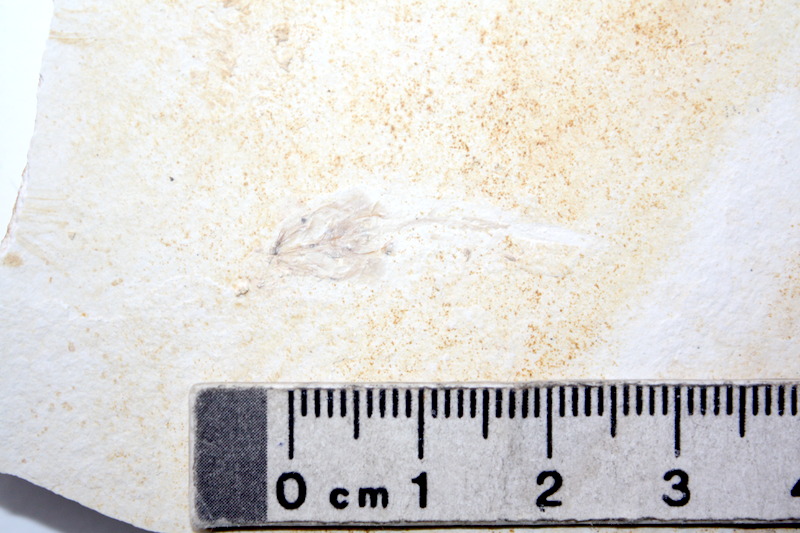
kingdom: Animalia
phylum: Chordata
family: Ophiopsiellidae
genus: Ophiopsiella
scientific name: Ophiopsiella
